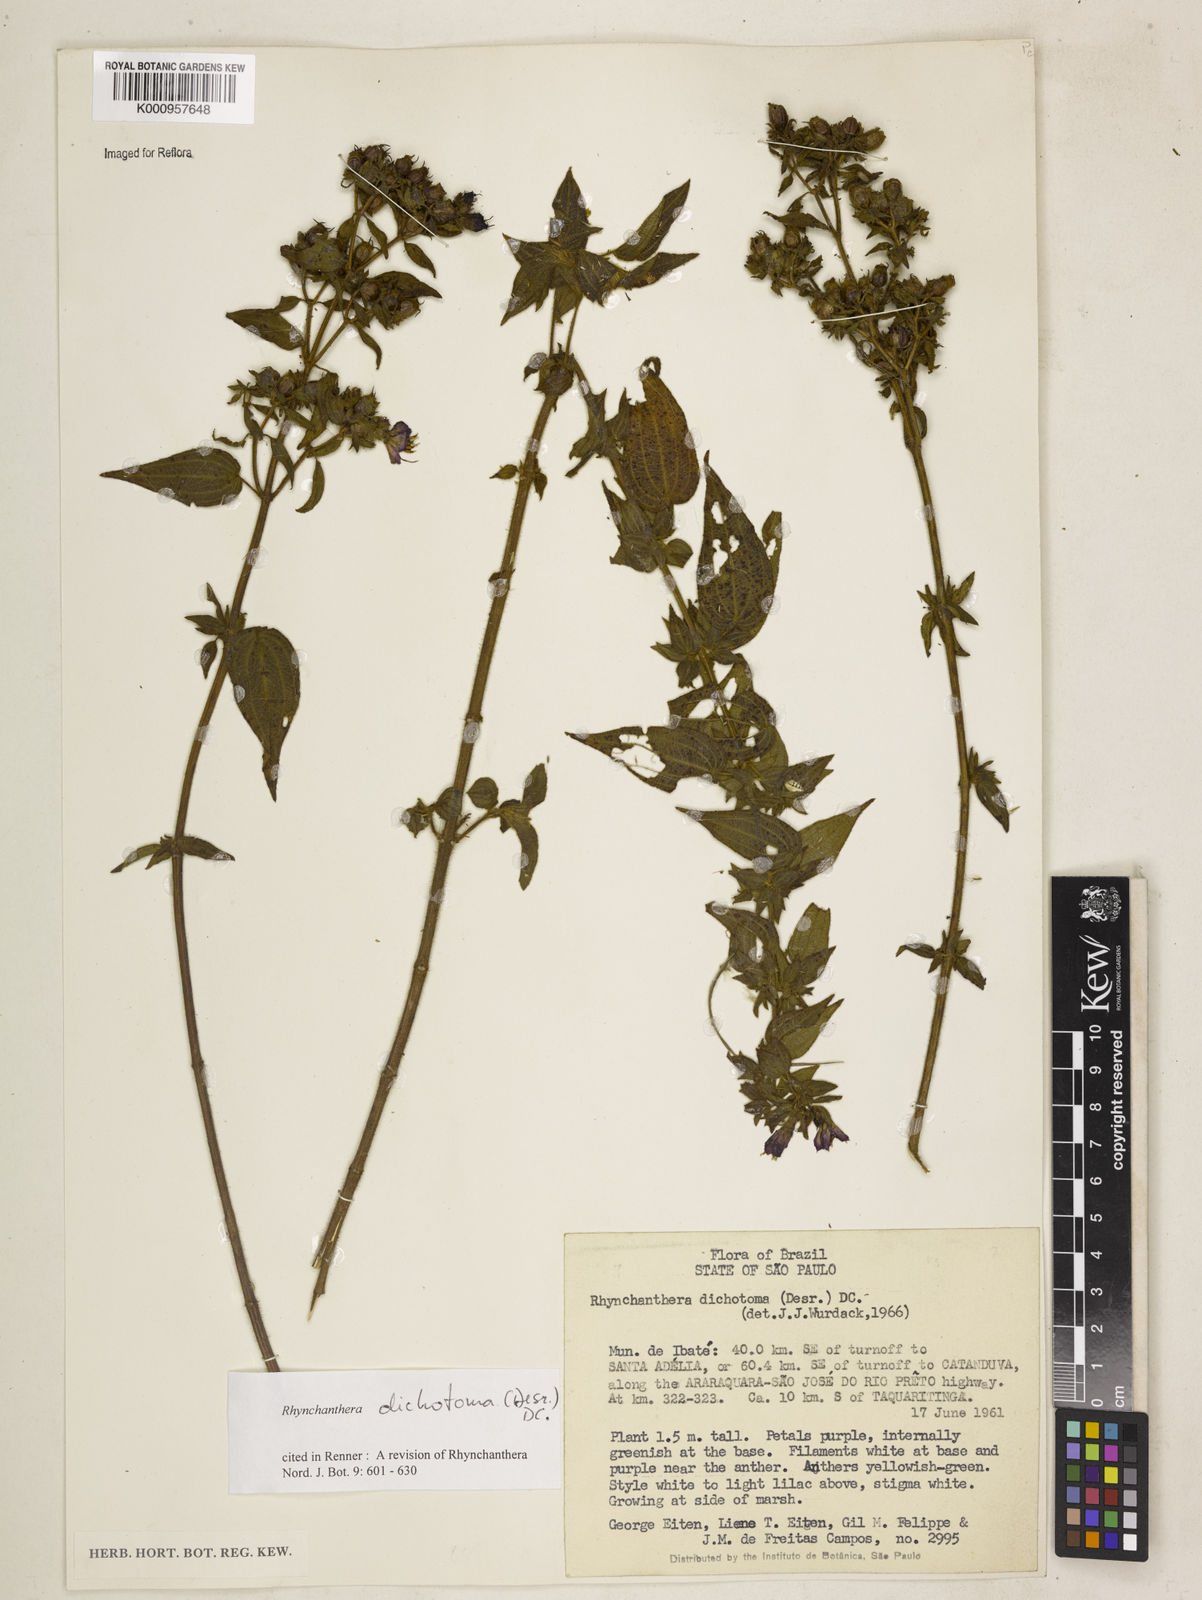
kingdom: Plantae
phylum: Tracheophyta
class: Magnoliopsida
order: Myrtales
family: Melastomataceae
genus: Rhynchanthera
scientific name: Rhynchanthera dichotoma
